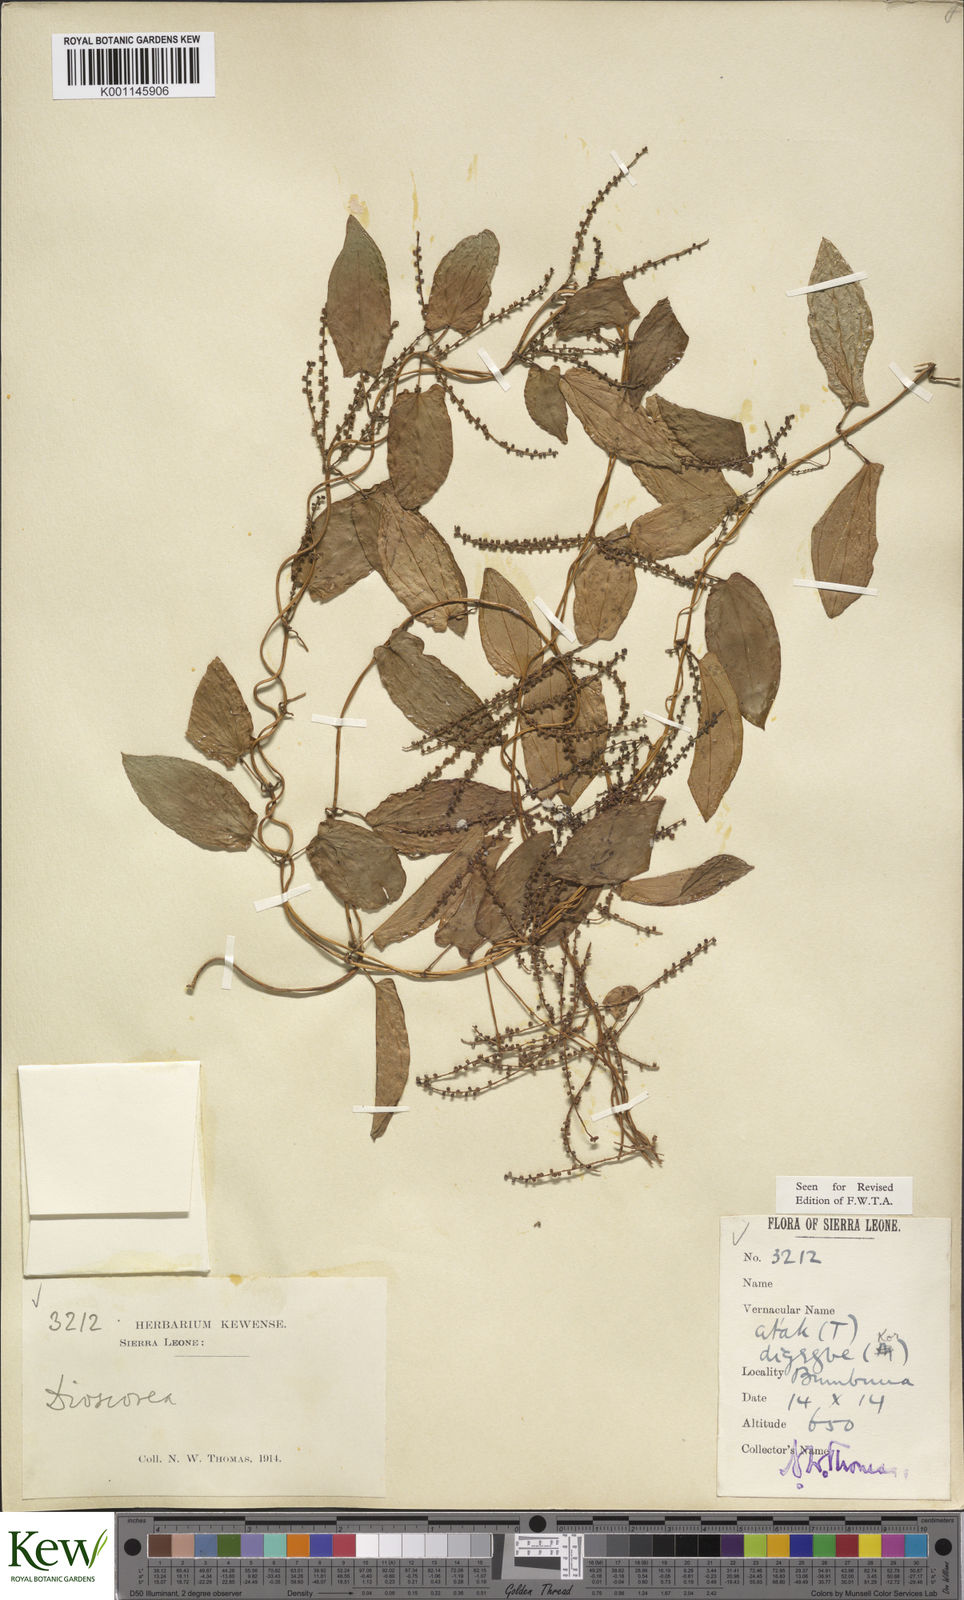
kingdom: Plantae
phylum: Tracheophyta
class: Liliopsida
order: Dioscoreales
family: Dioscoreaceae
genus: Dioscorea
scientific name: Dioscorea togoensis
